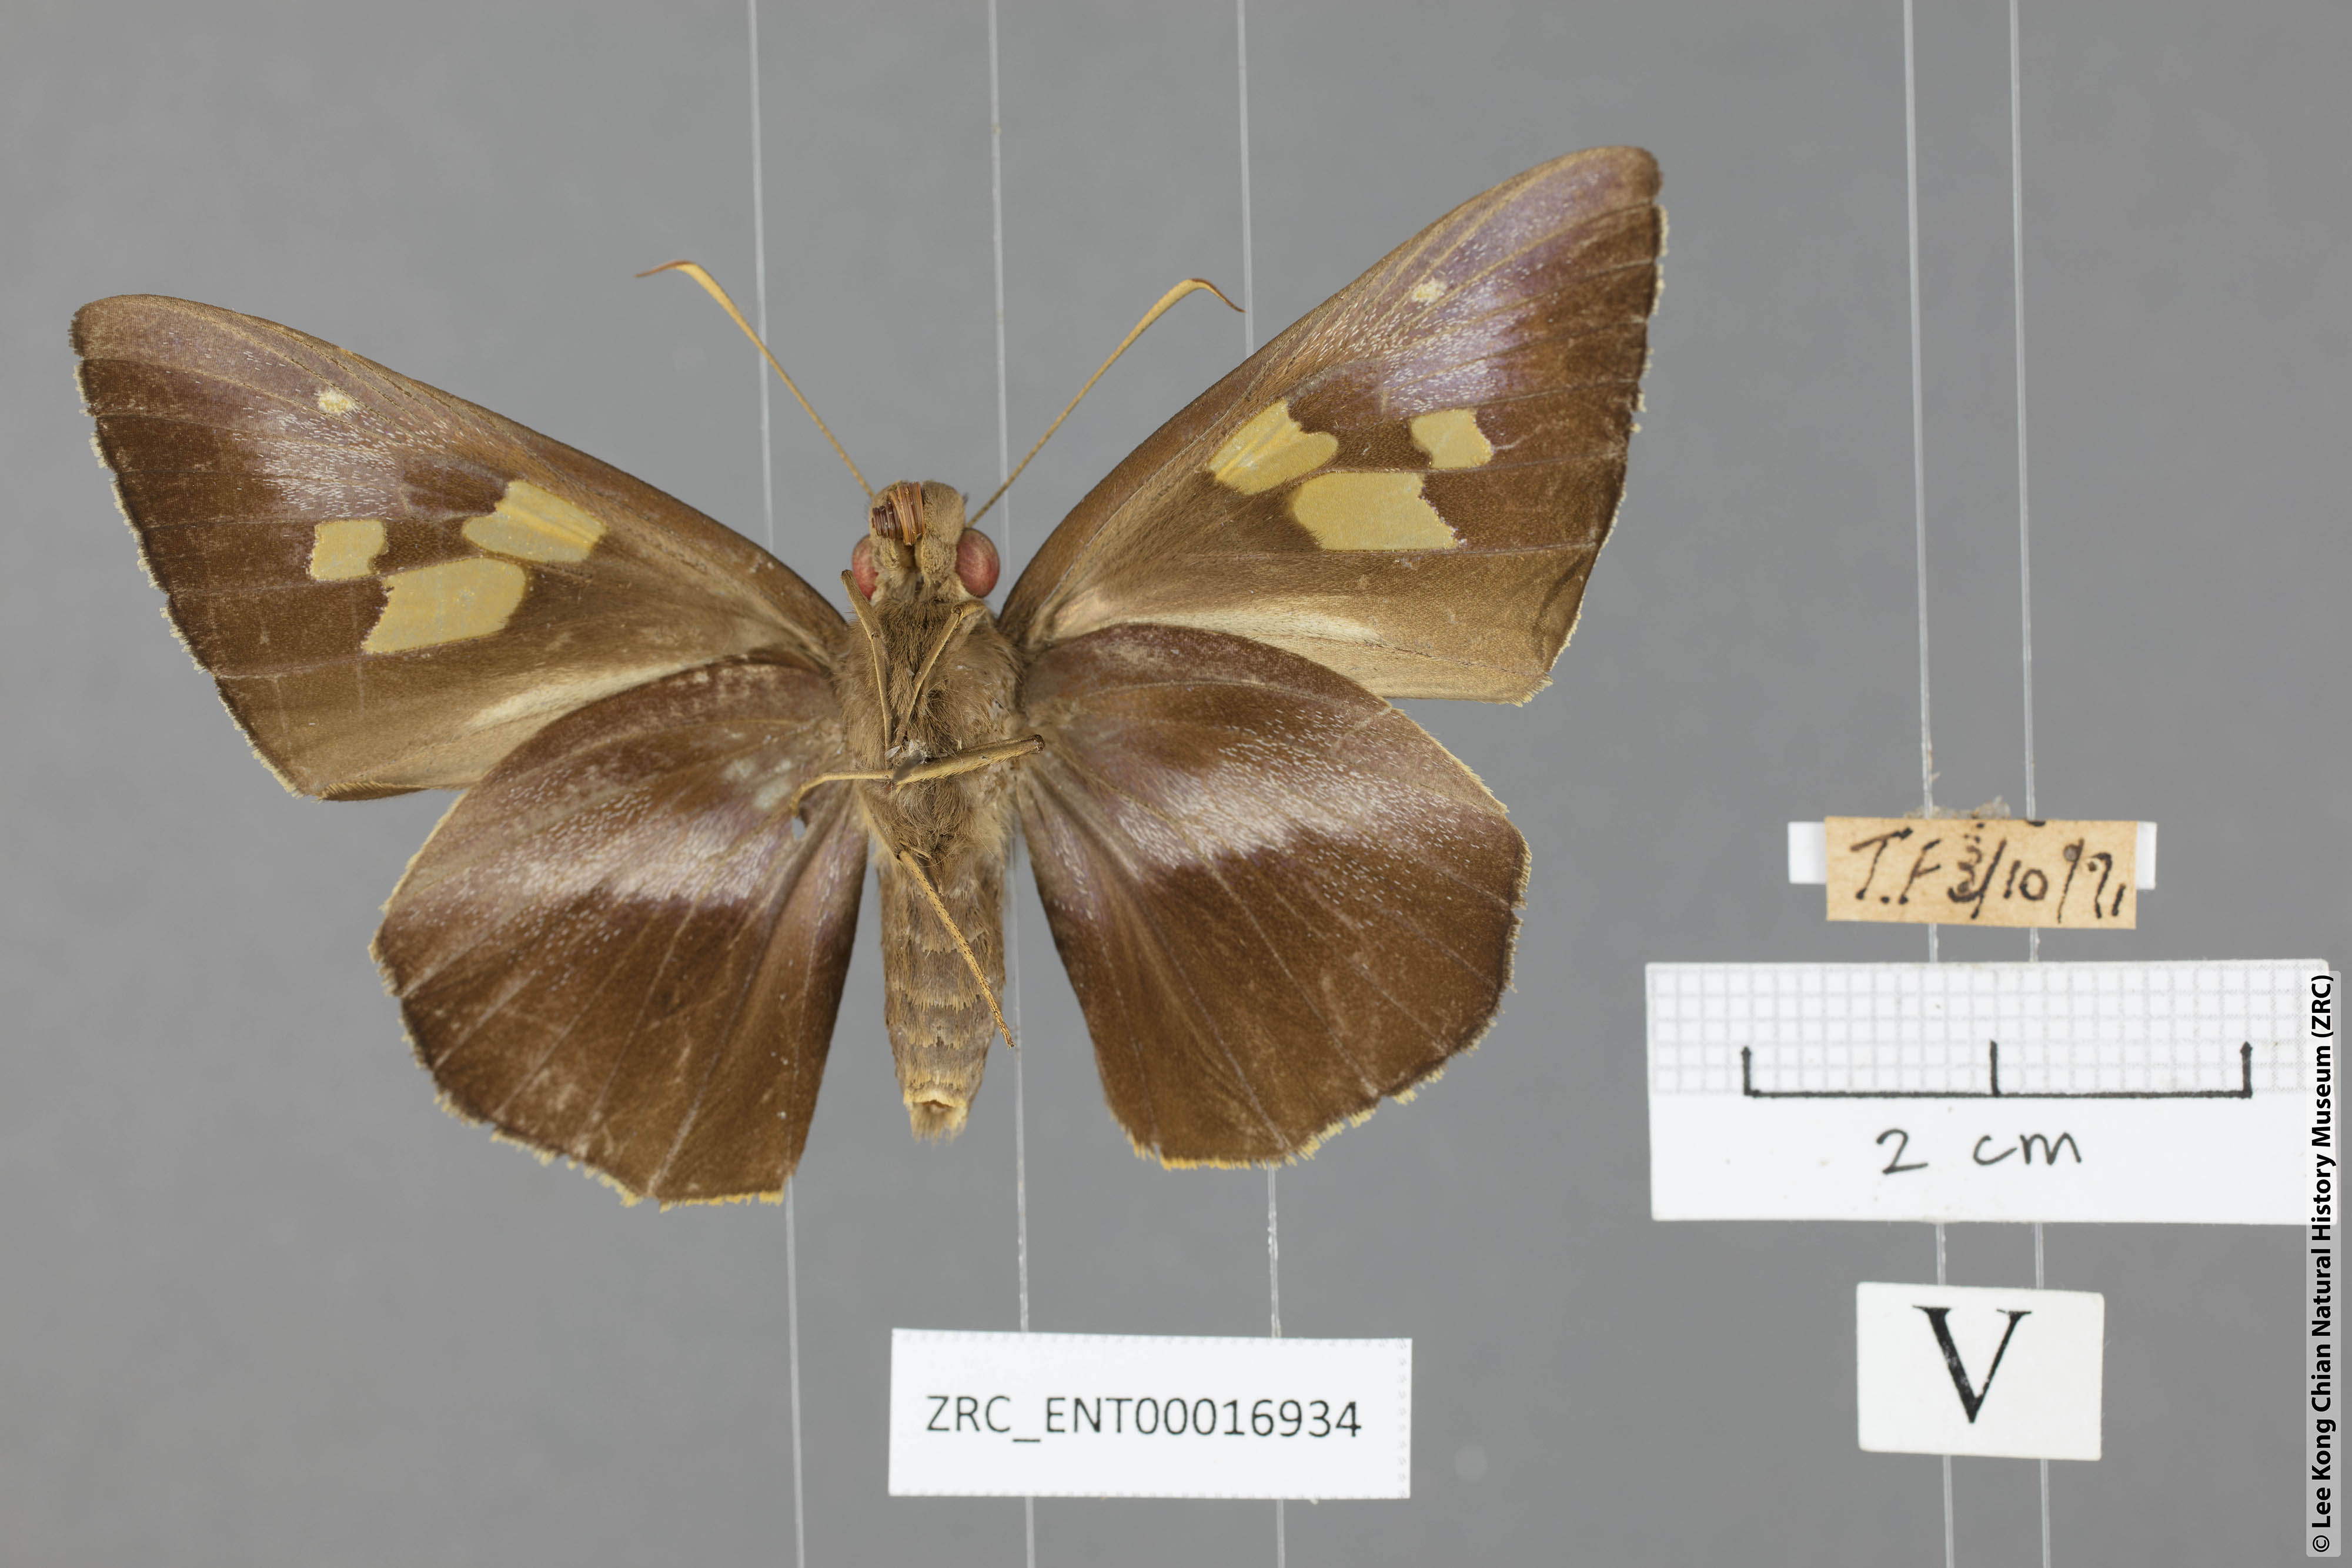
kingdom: Animalia
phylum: Arthropoda
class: Insecta
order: Lepidoptera
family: Hesperiidae
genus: Gangara
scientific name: Gangara lebadea
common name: Banded redeye
